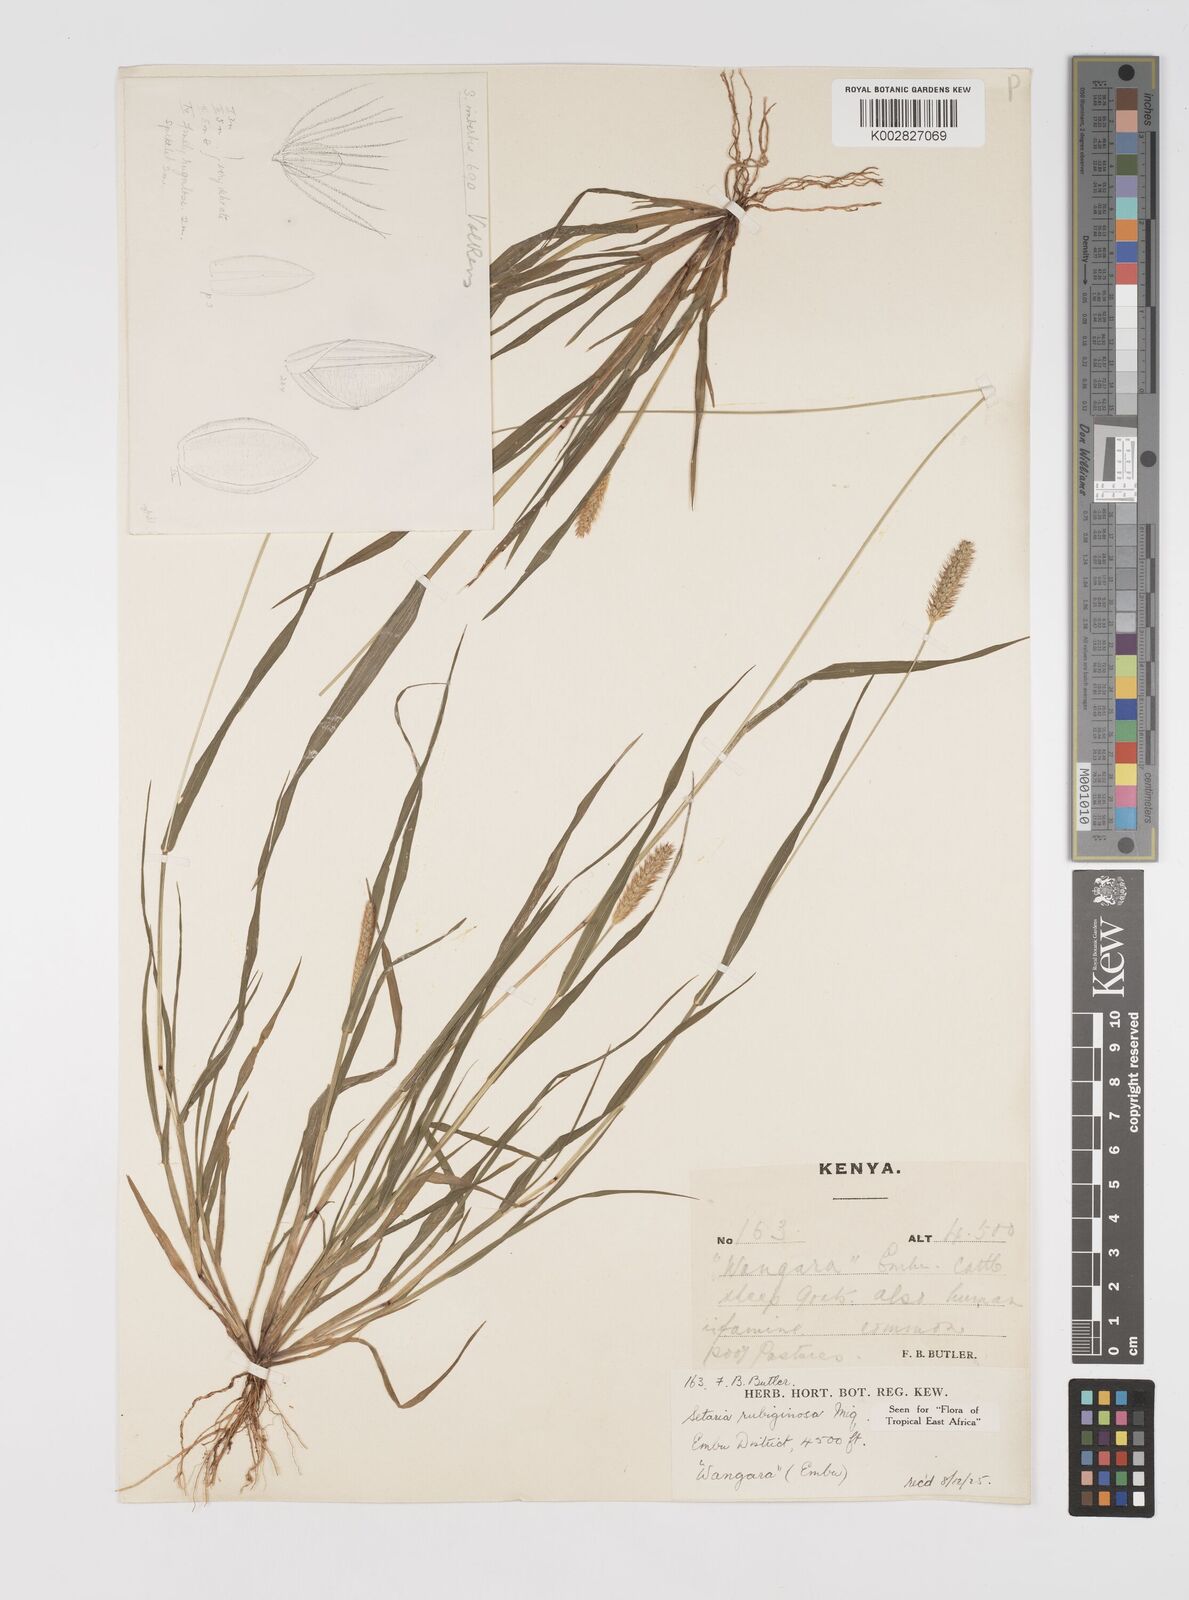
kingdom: Plantae
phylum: Tracheophyta
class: Liliopsida
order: Poales
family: Poaceae
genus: Setaria
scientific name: Setaria pumila
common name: Yellow bristle-grass
